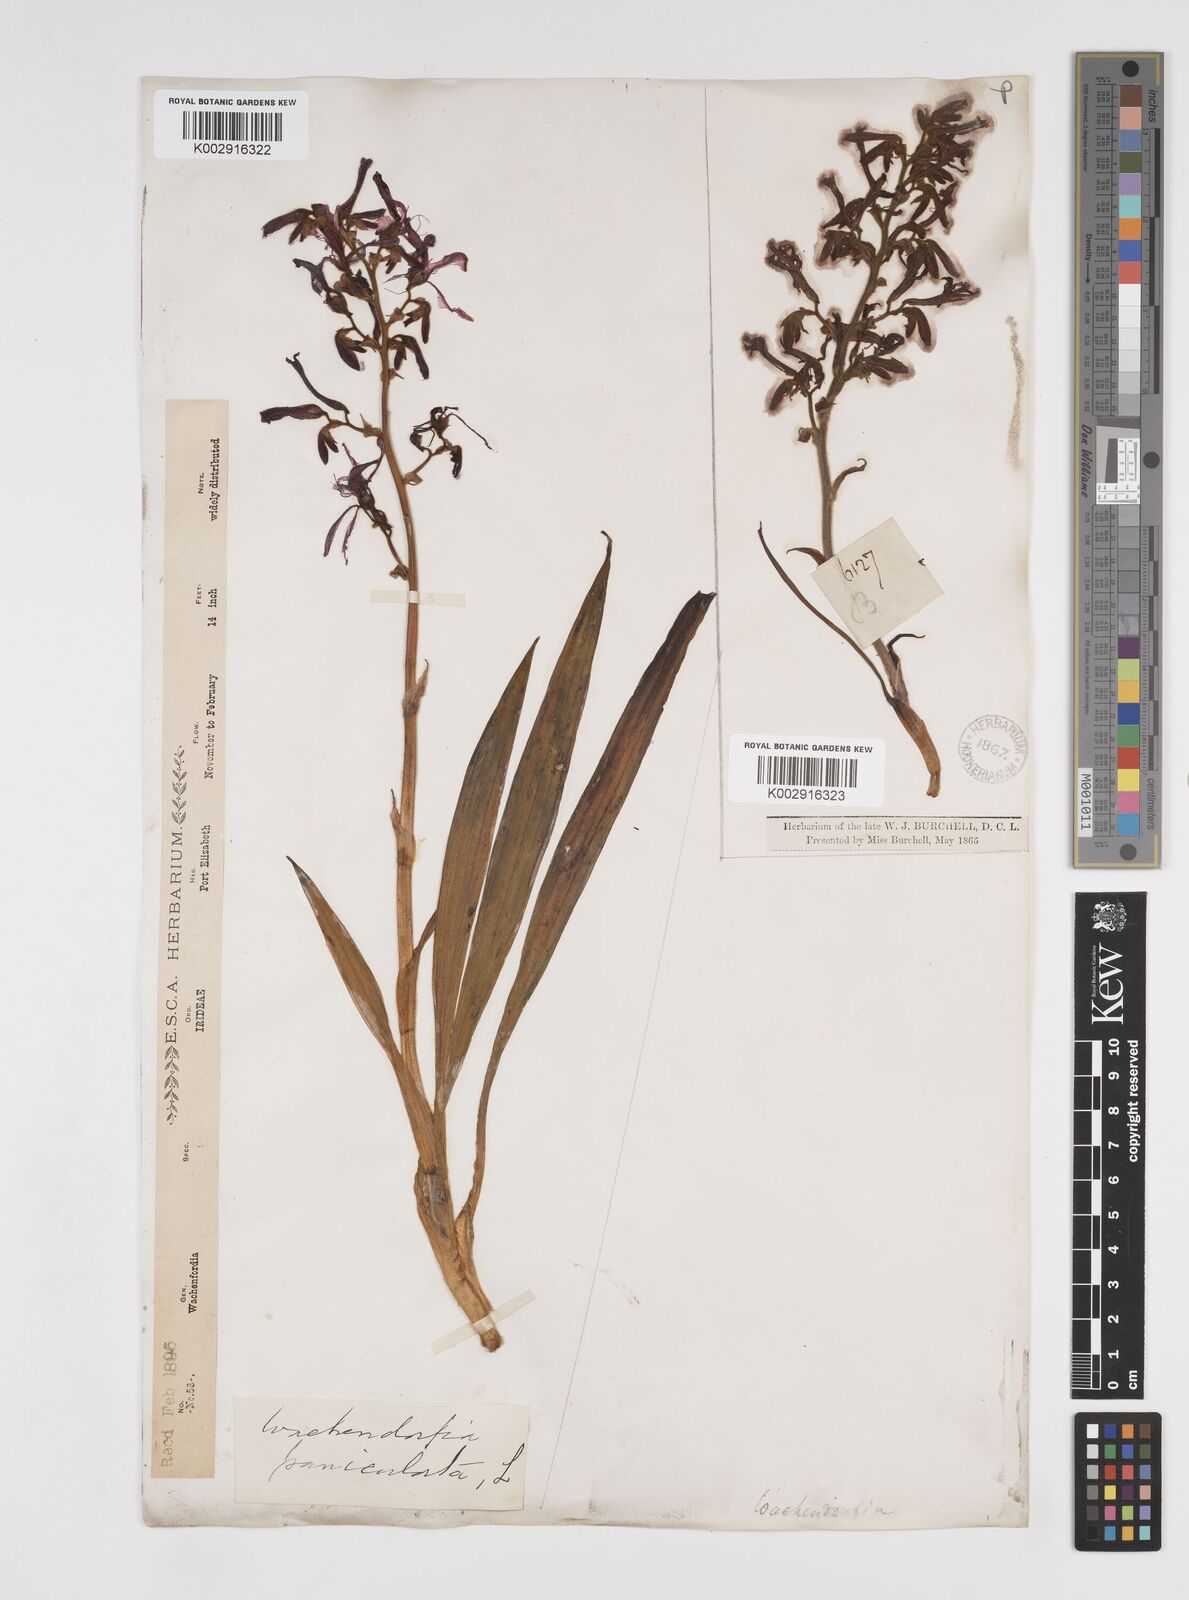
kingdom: Plantae
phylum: Tracheophyta
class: Liliopsida
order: Commelinales
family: Haemodoraceae
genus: Wachendorfia
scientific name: Wachendorfia paniculata
